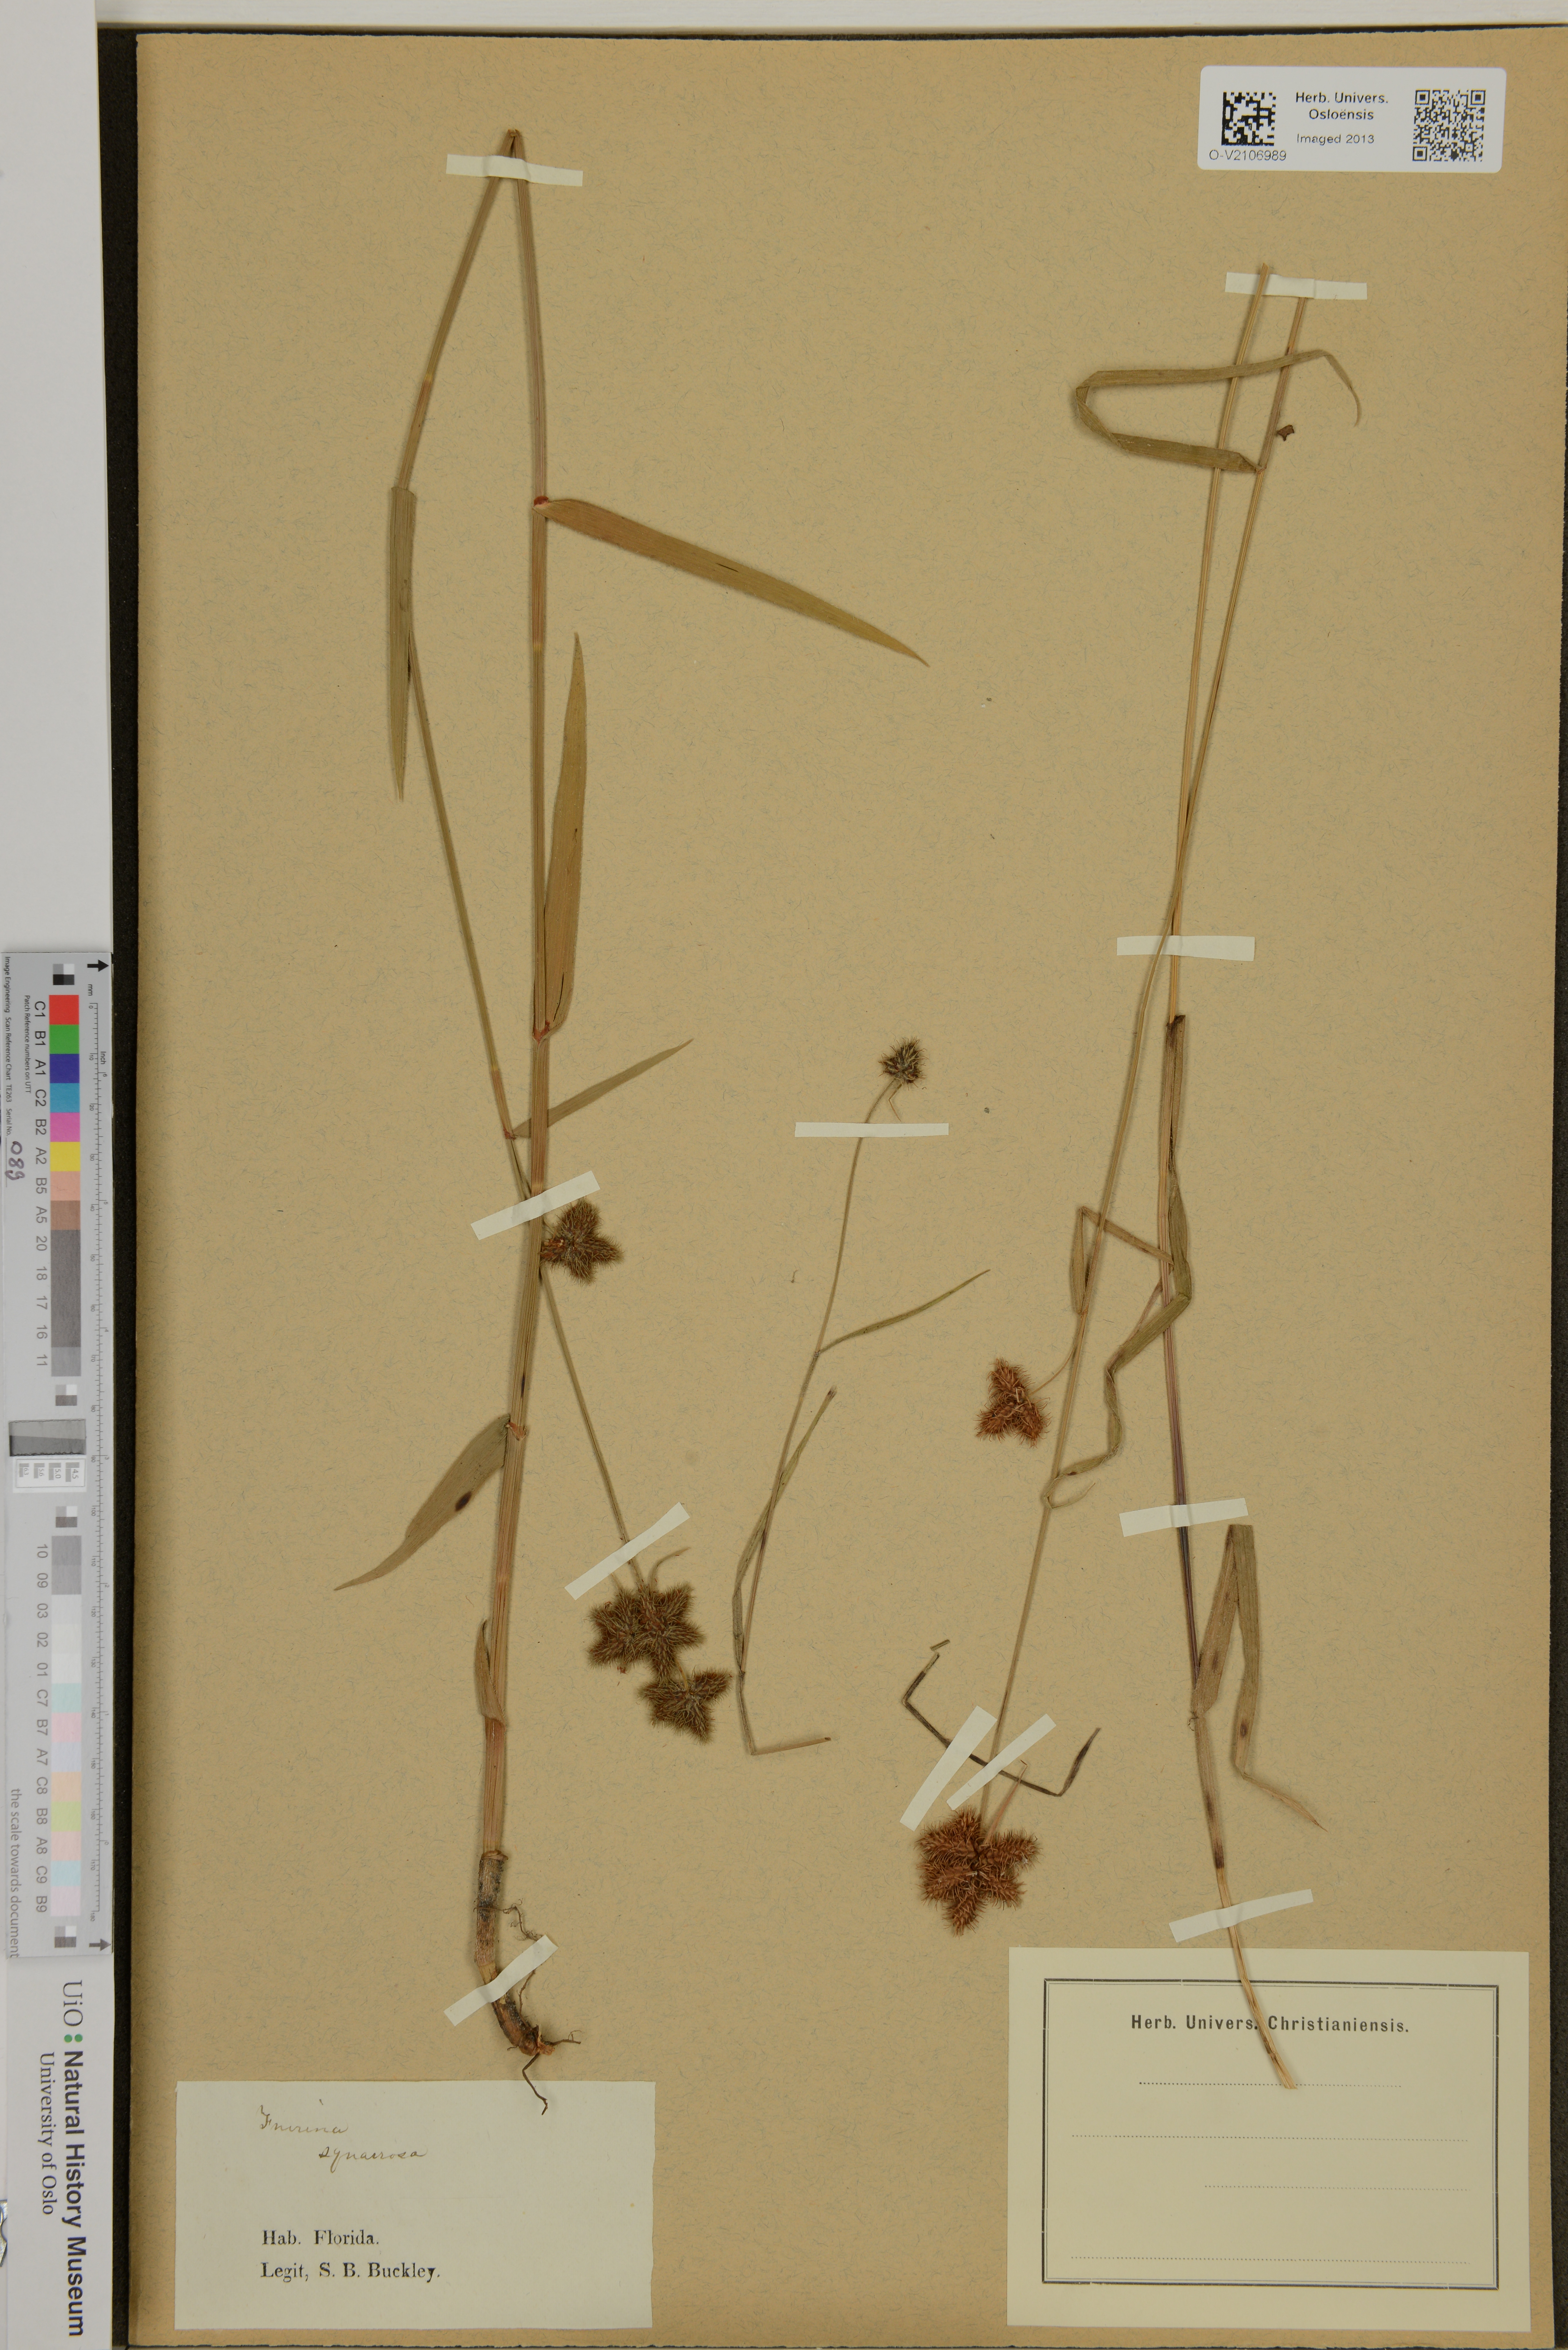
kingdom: Plantae
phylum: Tracheophyta
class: Liliopsida
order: Poales
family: Cyperaceae
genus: Fuirena
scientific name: Fuirena squarrosa
